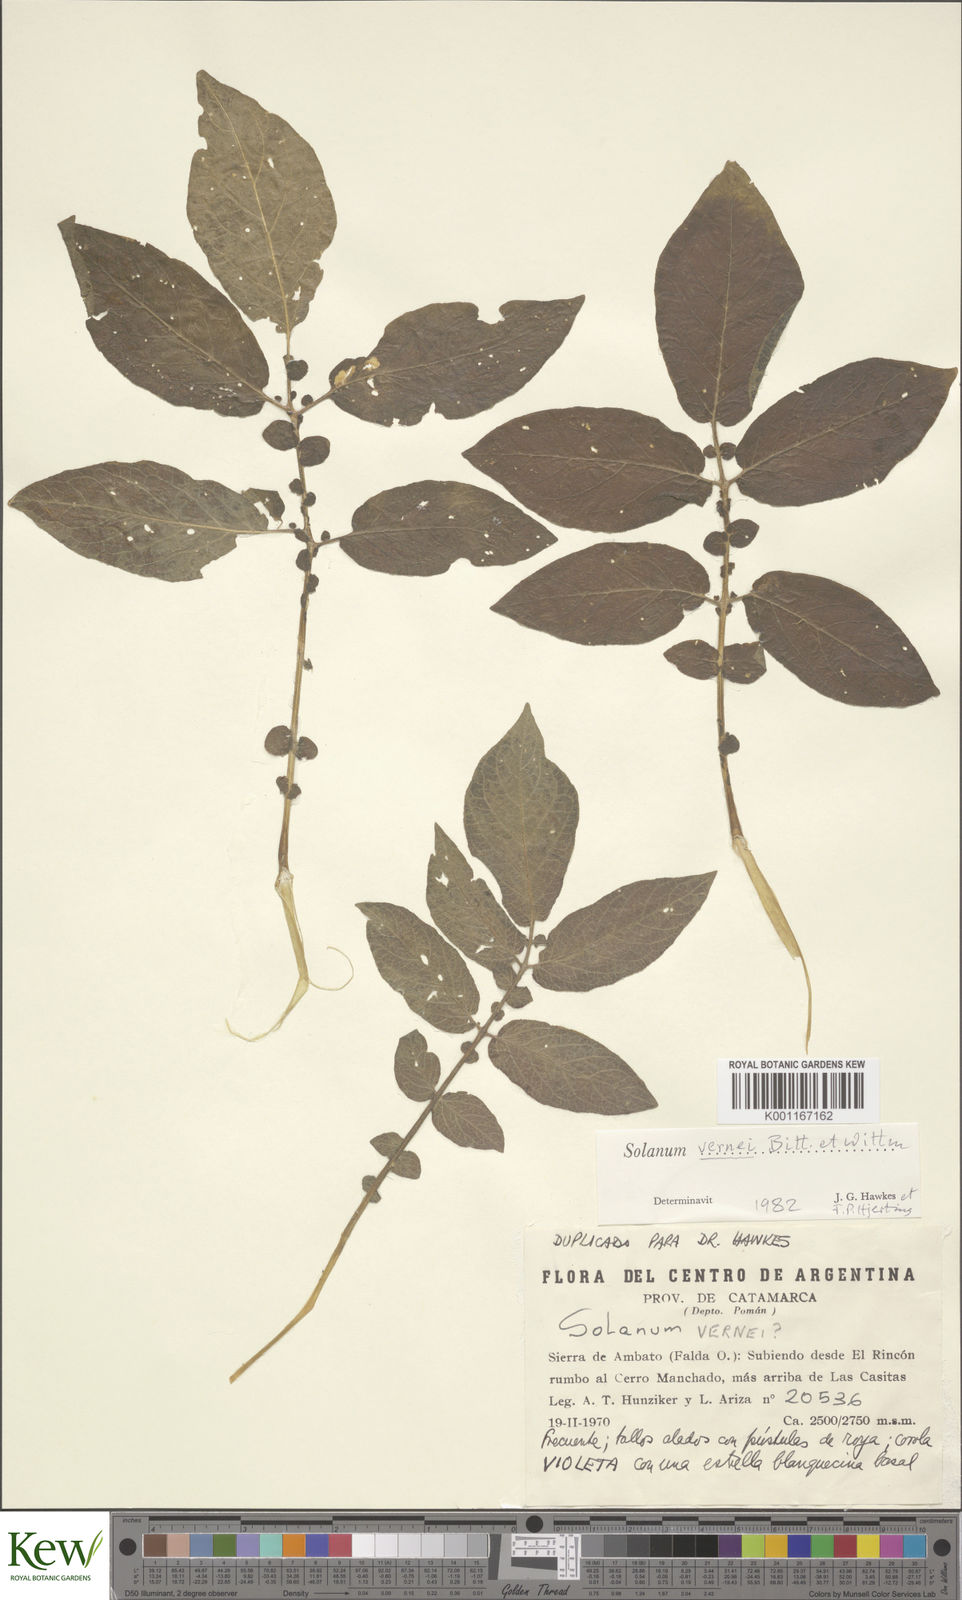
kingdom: Plantae
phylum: Tracheophyta
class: Magnoliopsida
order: Solanales
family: Solanaceae
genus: Solanum
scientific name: Solanum vernei
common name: Purple potato
